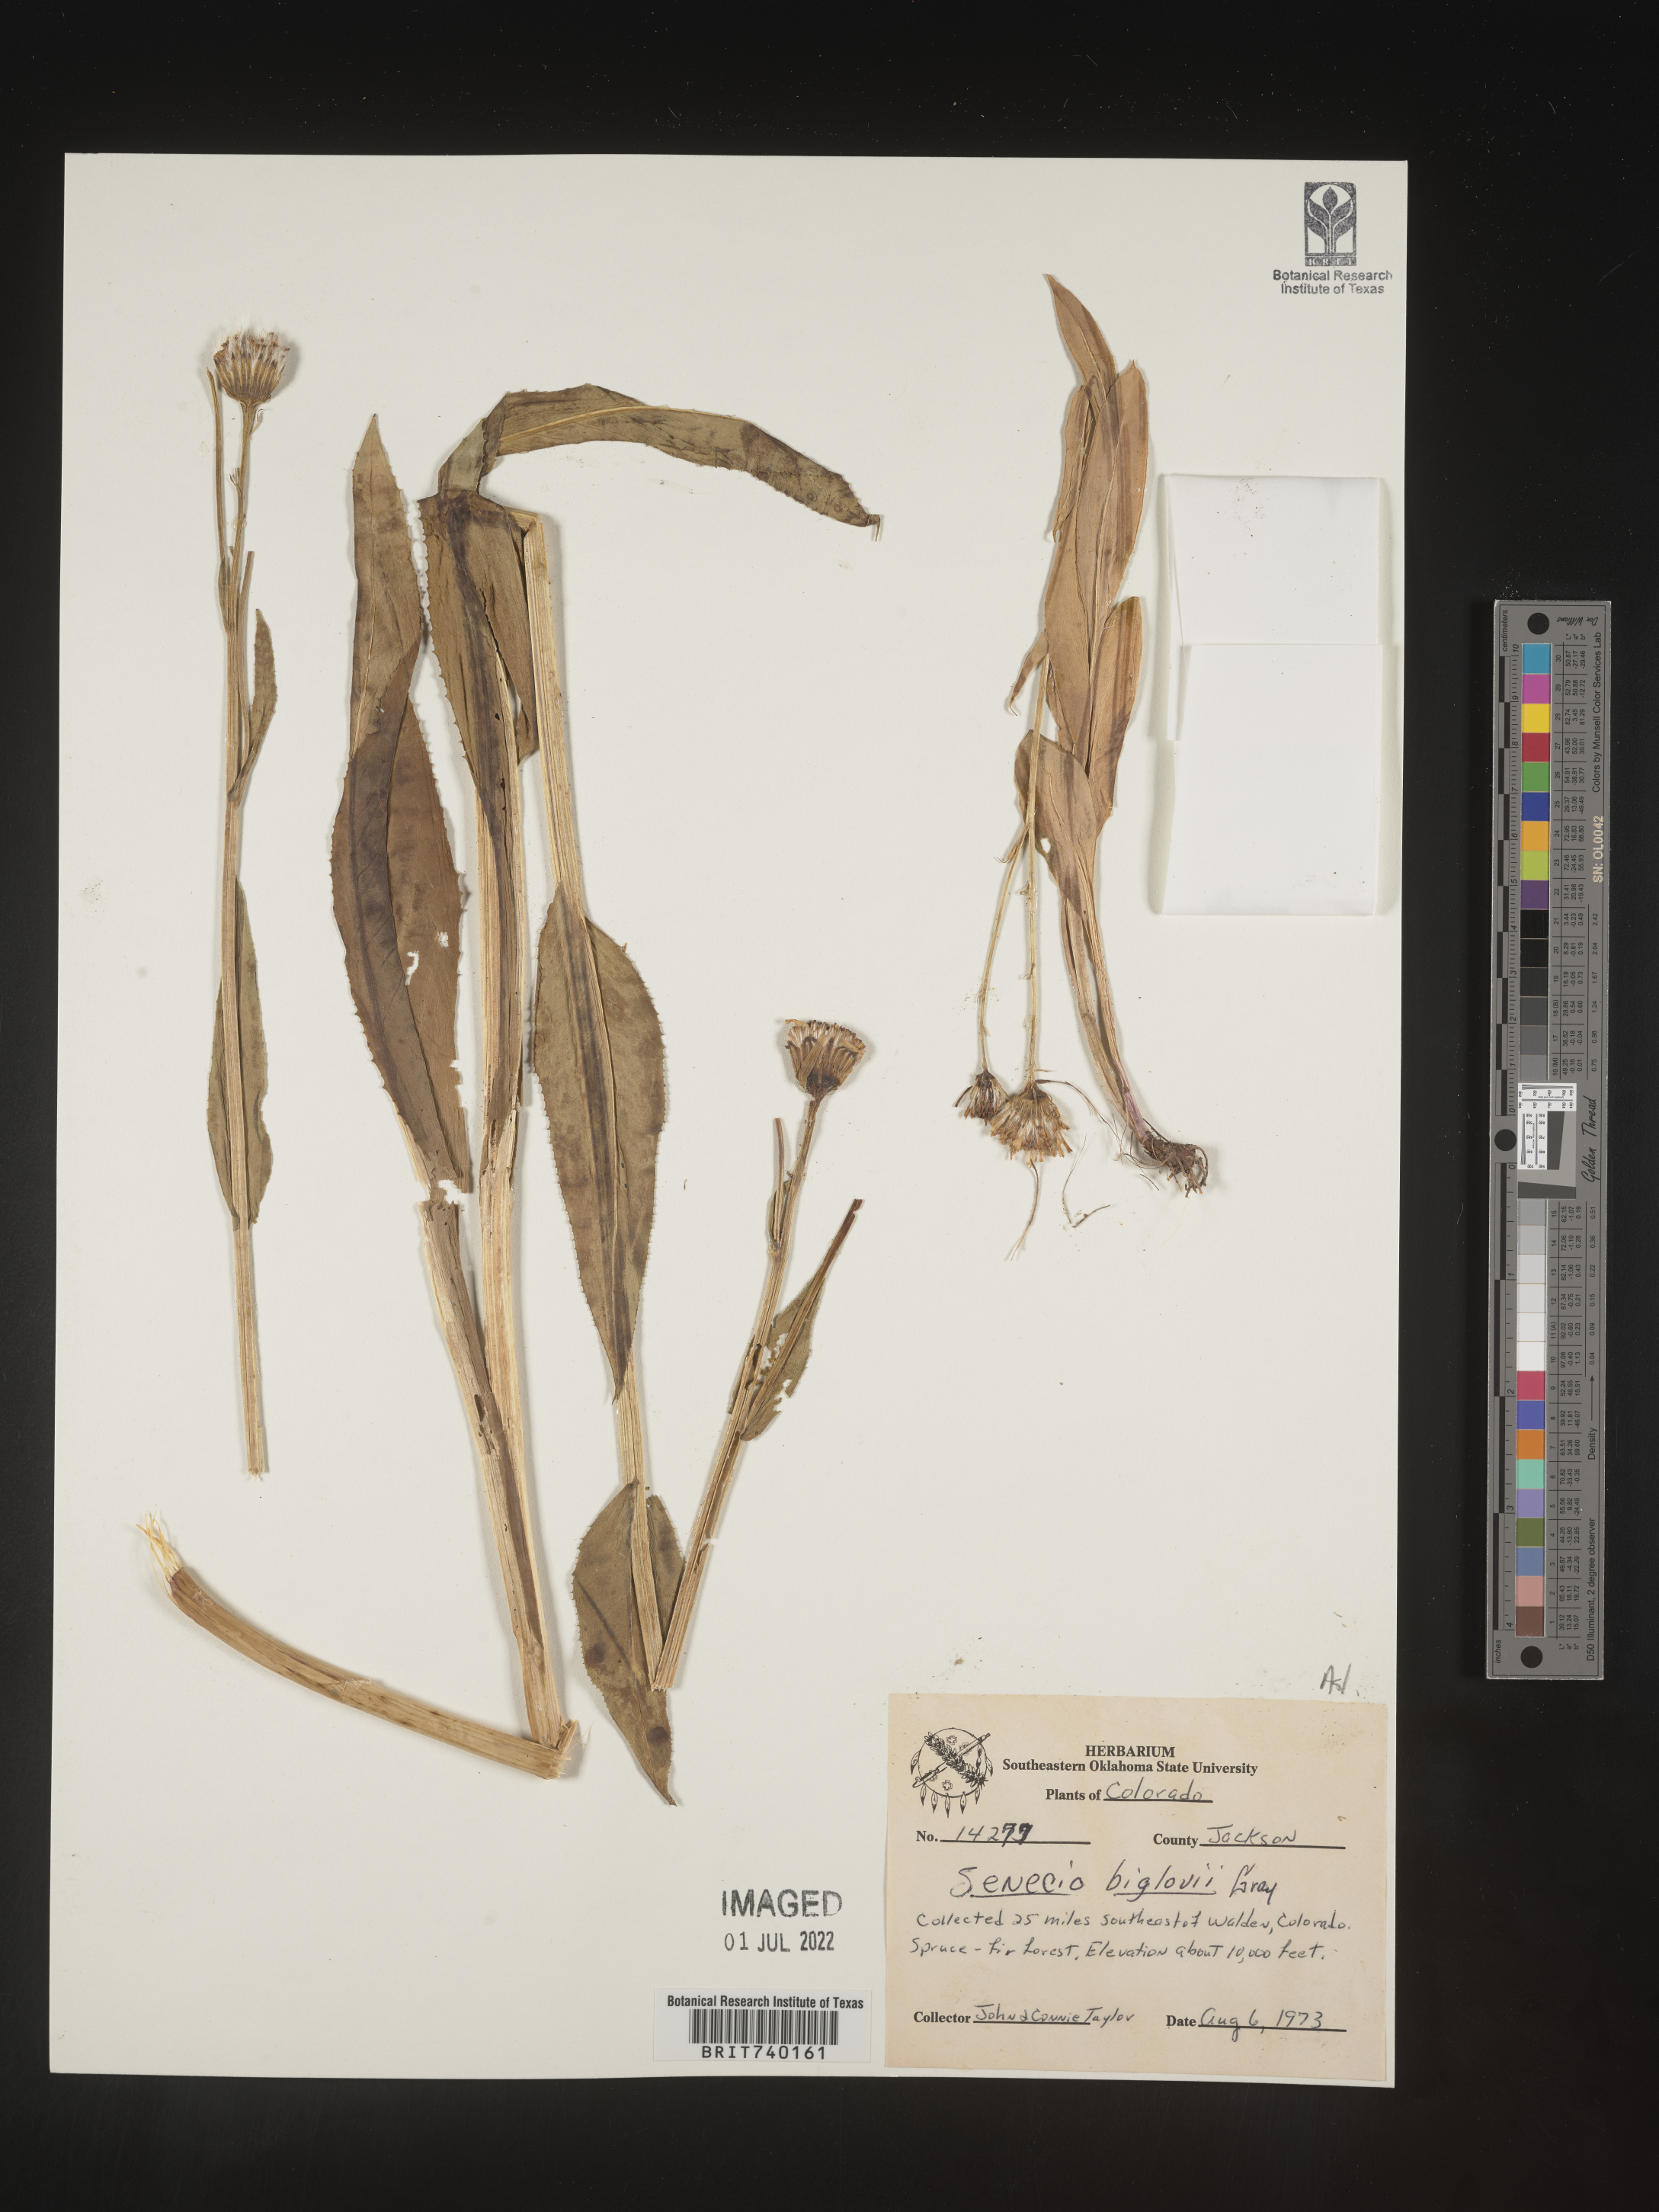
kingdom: Plantae
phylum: Tracheophyta
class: Magnoliopsida
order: Asterales
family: Asteraceae
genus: Senecio
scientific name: Senecio bigelovii
